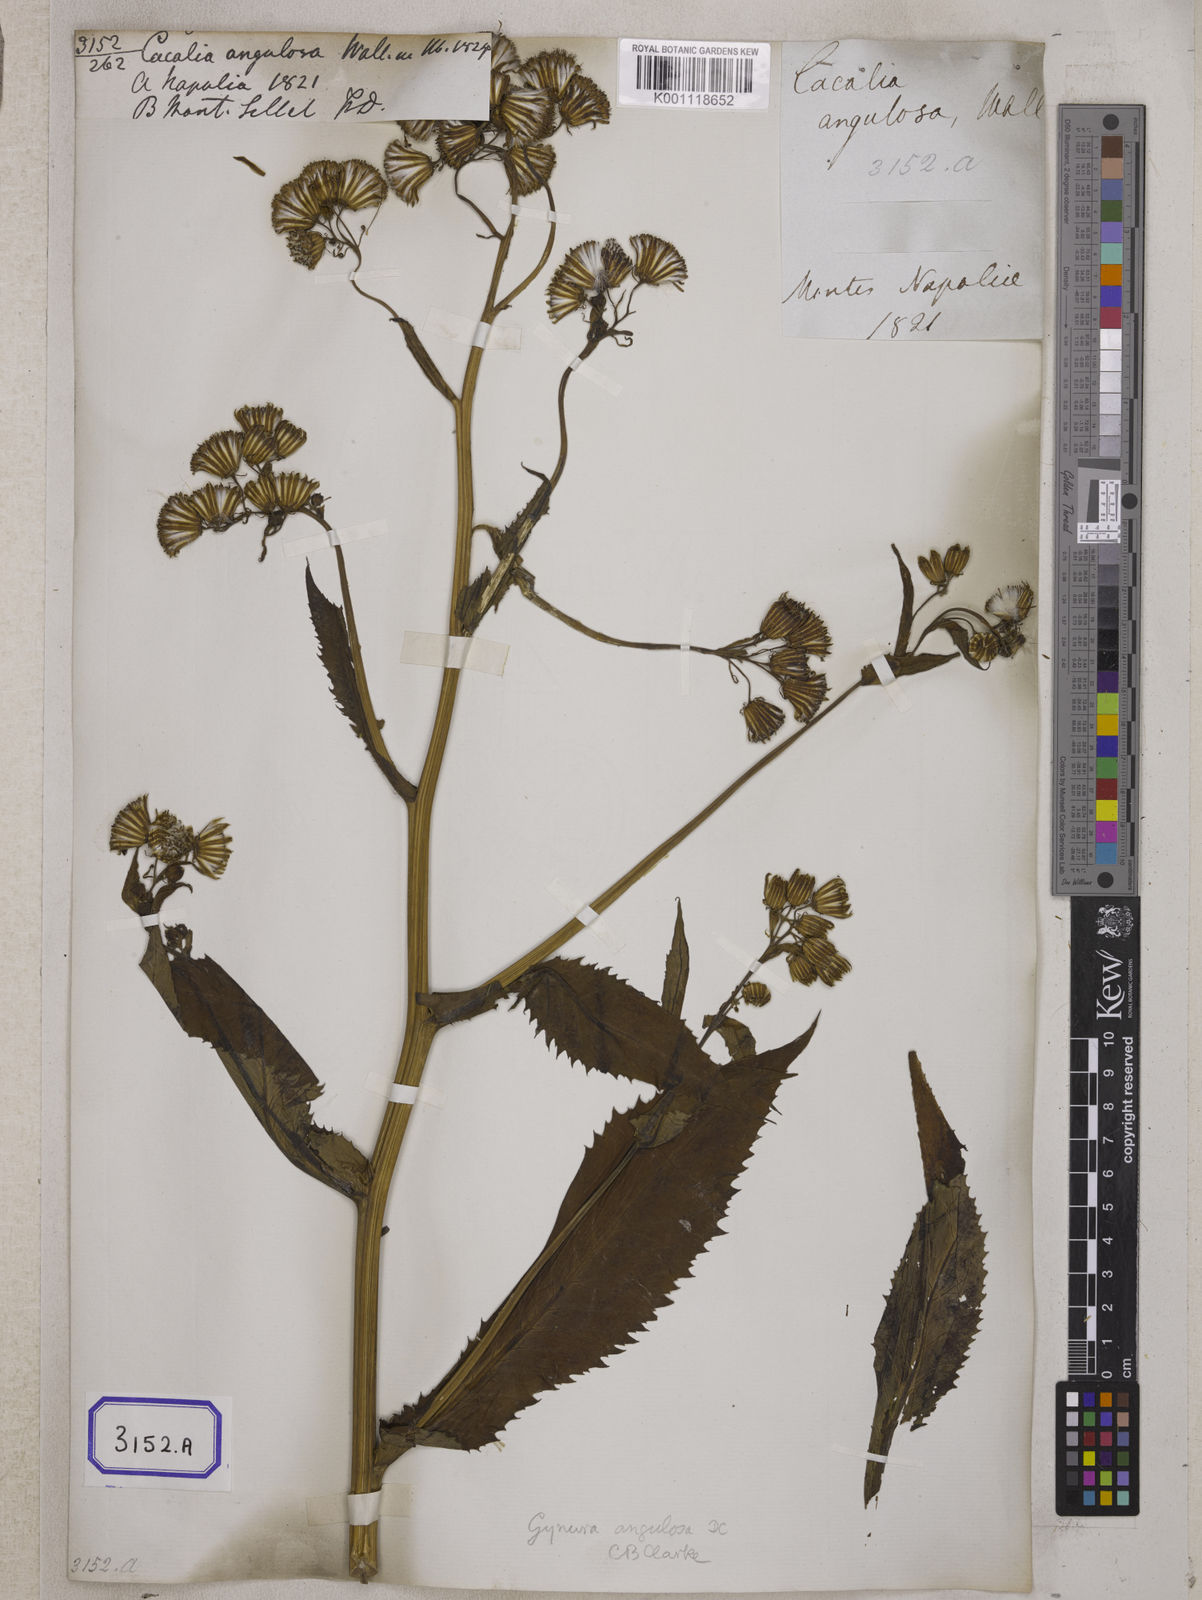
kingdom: Plantae
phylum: Tracheophyta
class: Magnoliopsida
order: Asterales
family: Asteraceae
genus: Gynura
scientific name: Gynura bicolor
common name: Red-vegetable
